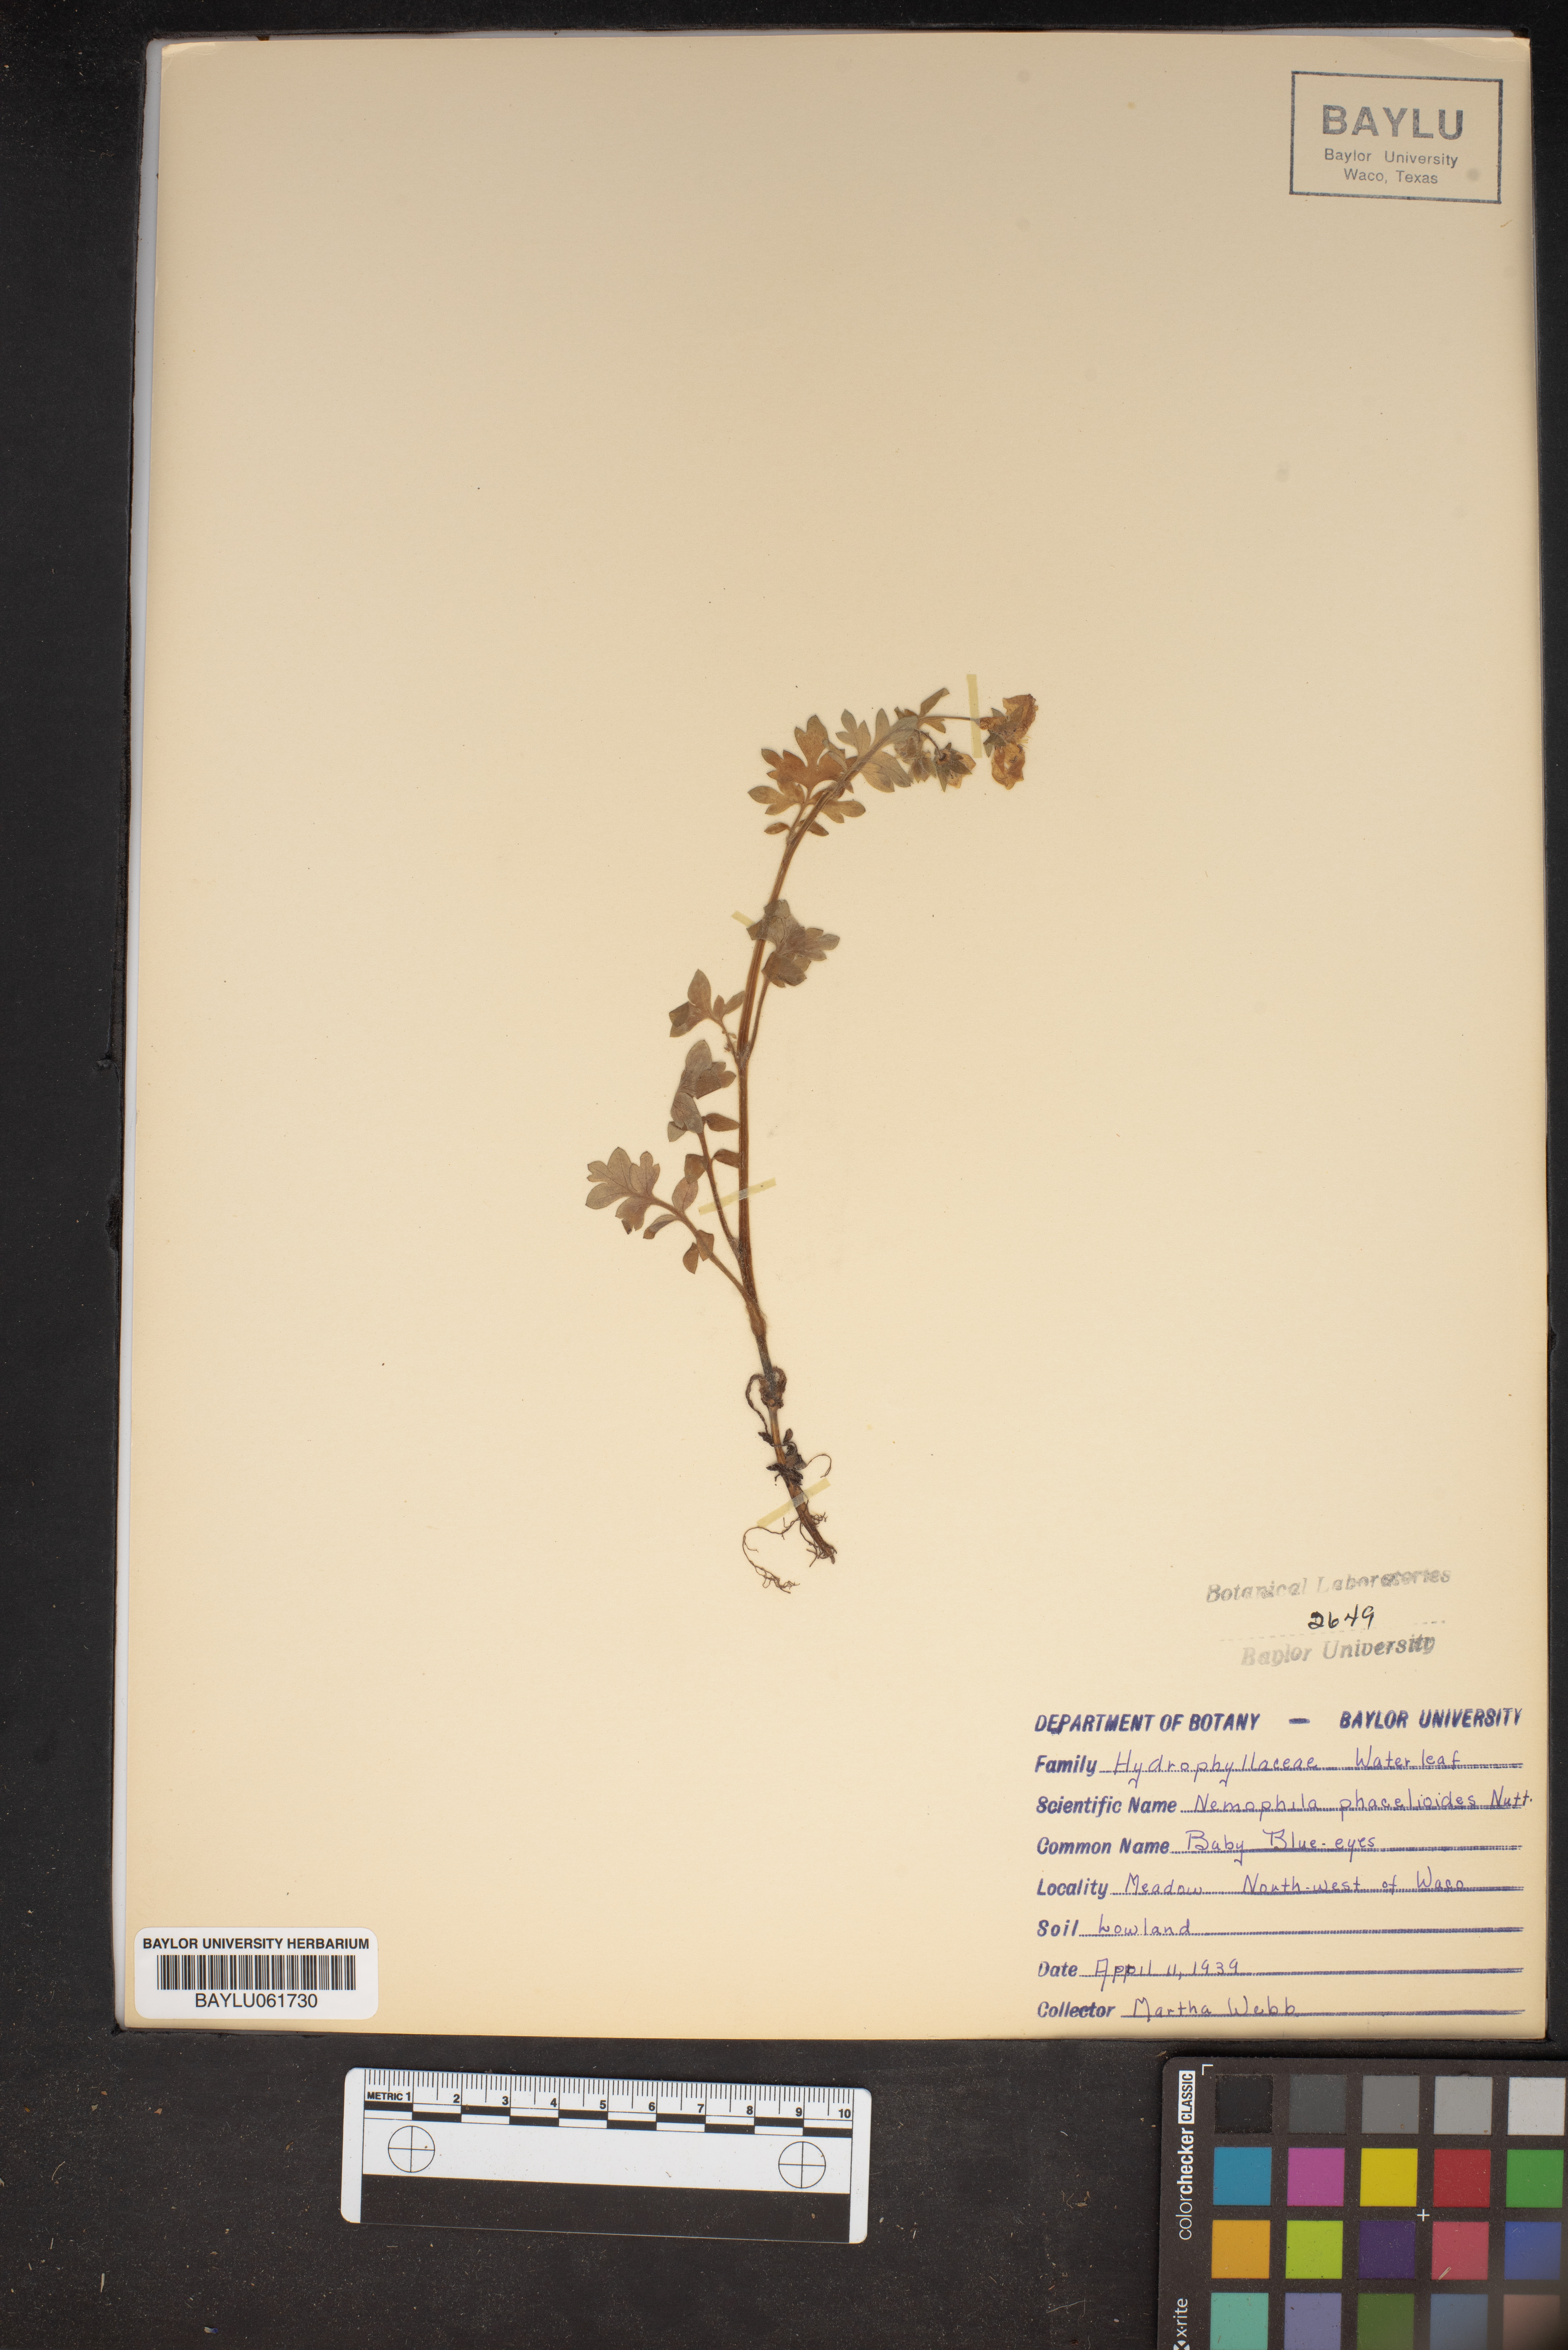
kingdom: Plantae
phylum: Tracheophyta
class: Magnoliopsida
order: Boraginales
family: Hydrophyllaceae
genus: Nemophila
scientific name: Nemophila phacelioides
